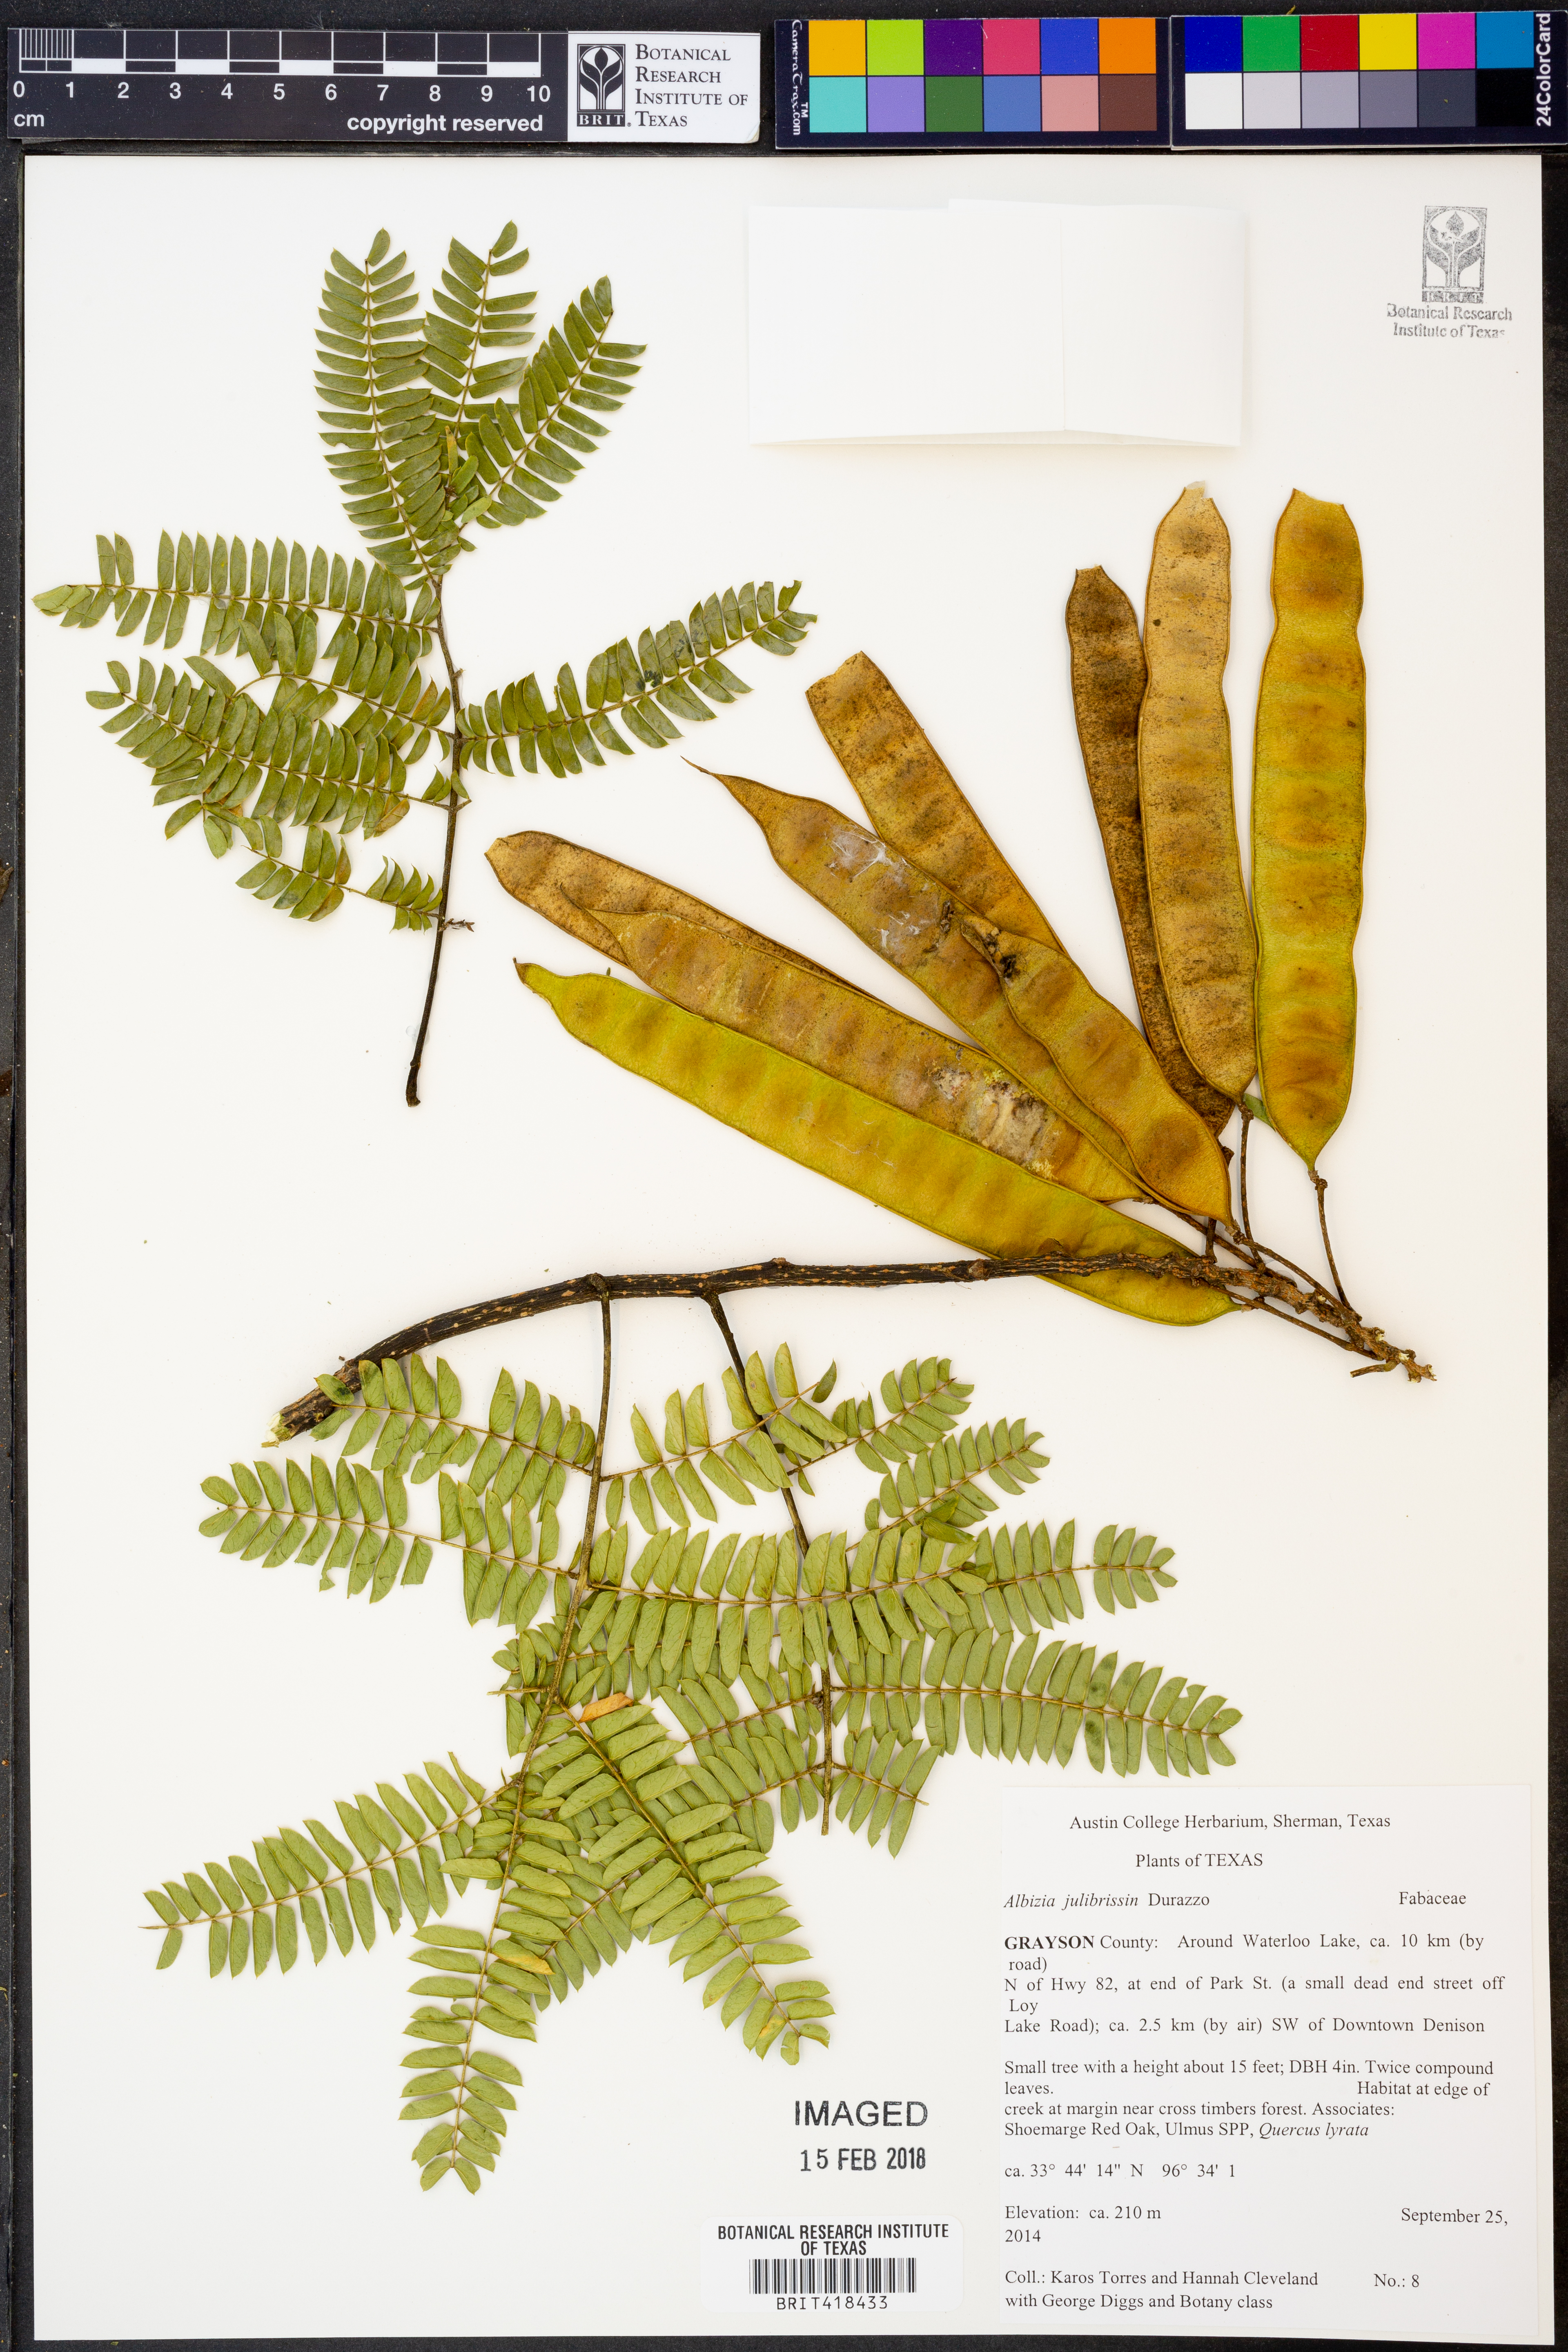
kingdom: Plantae
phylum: Tracheophyta
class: Magnoliopsida
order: Fabales
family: Fabaceae
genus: Albizia
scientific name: Albizia julibrissin
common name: Silktree
